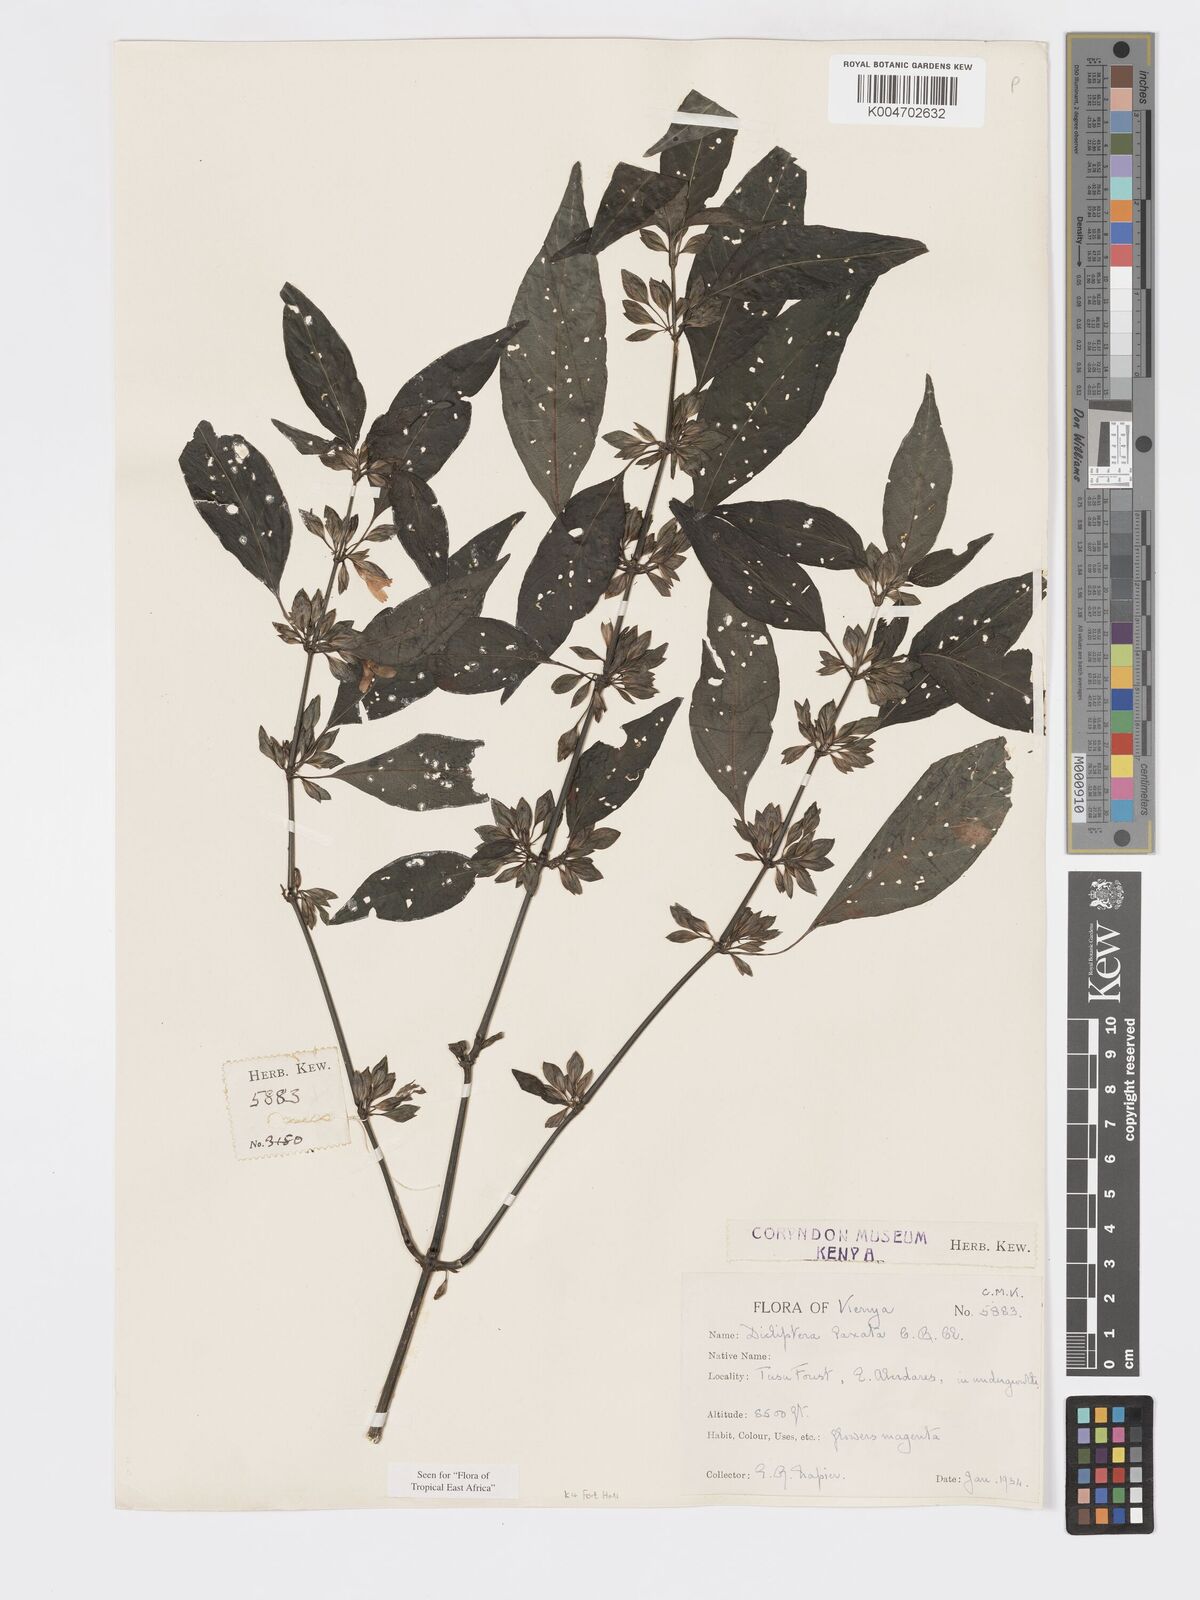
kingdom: Plantae
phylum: Tracheophyta
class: Magnoliopsida
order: Lamiales
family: Acanthaceae
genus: Dicliptera
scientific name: Dicliptera laxata
